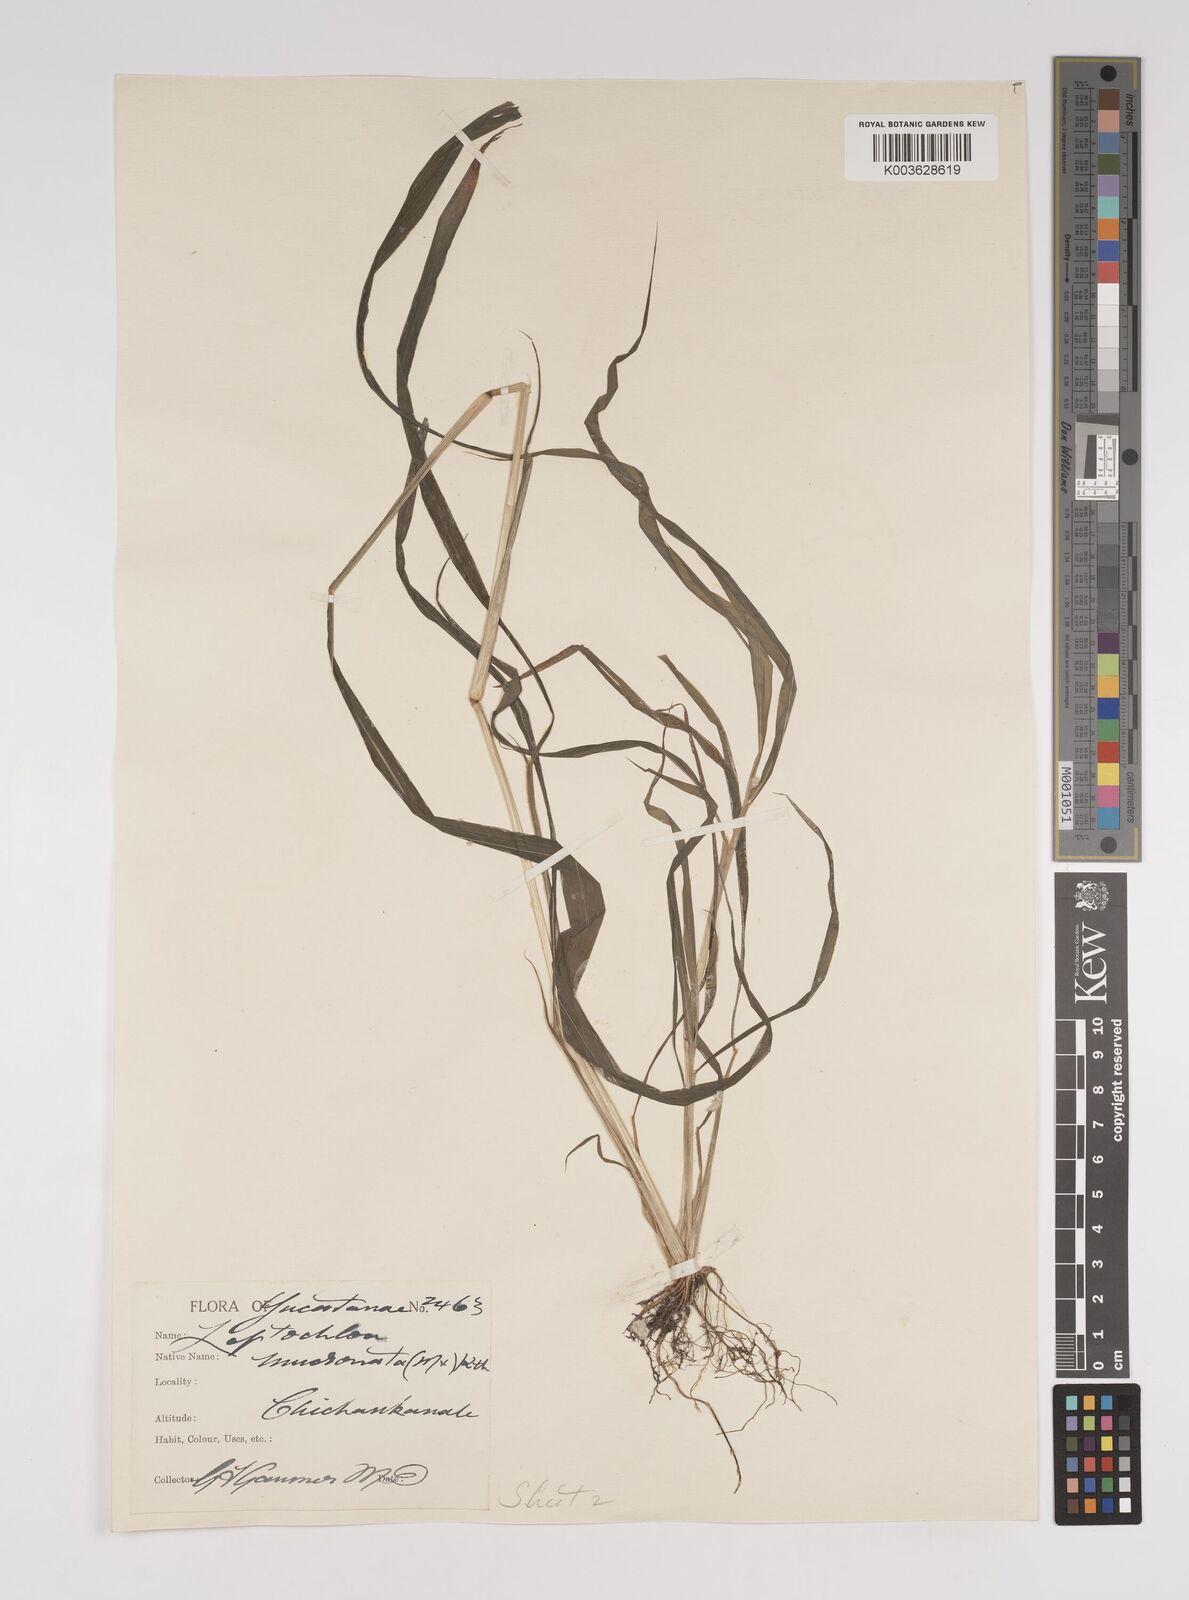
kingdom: Plantae
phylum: Tracheophyta
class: Liliopsida
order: Poales
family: Poaceae
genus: Leptochloa
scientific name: Leptochloa panicea
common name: Mucronate sprangletop
